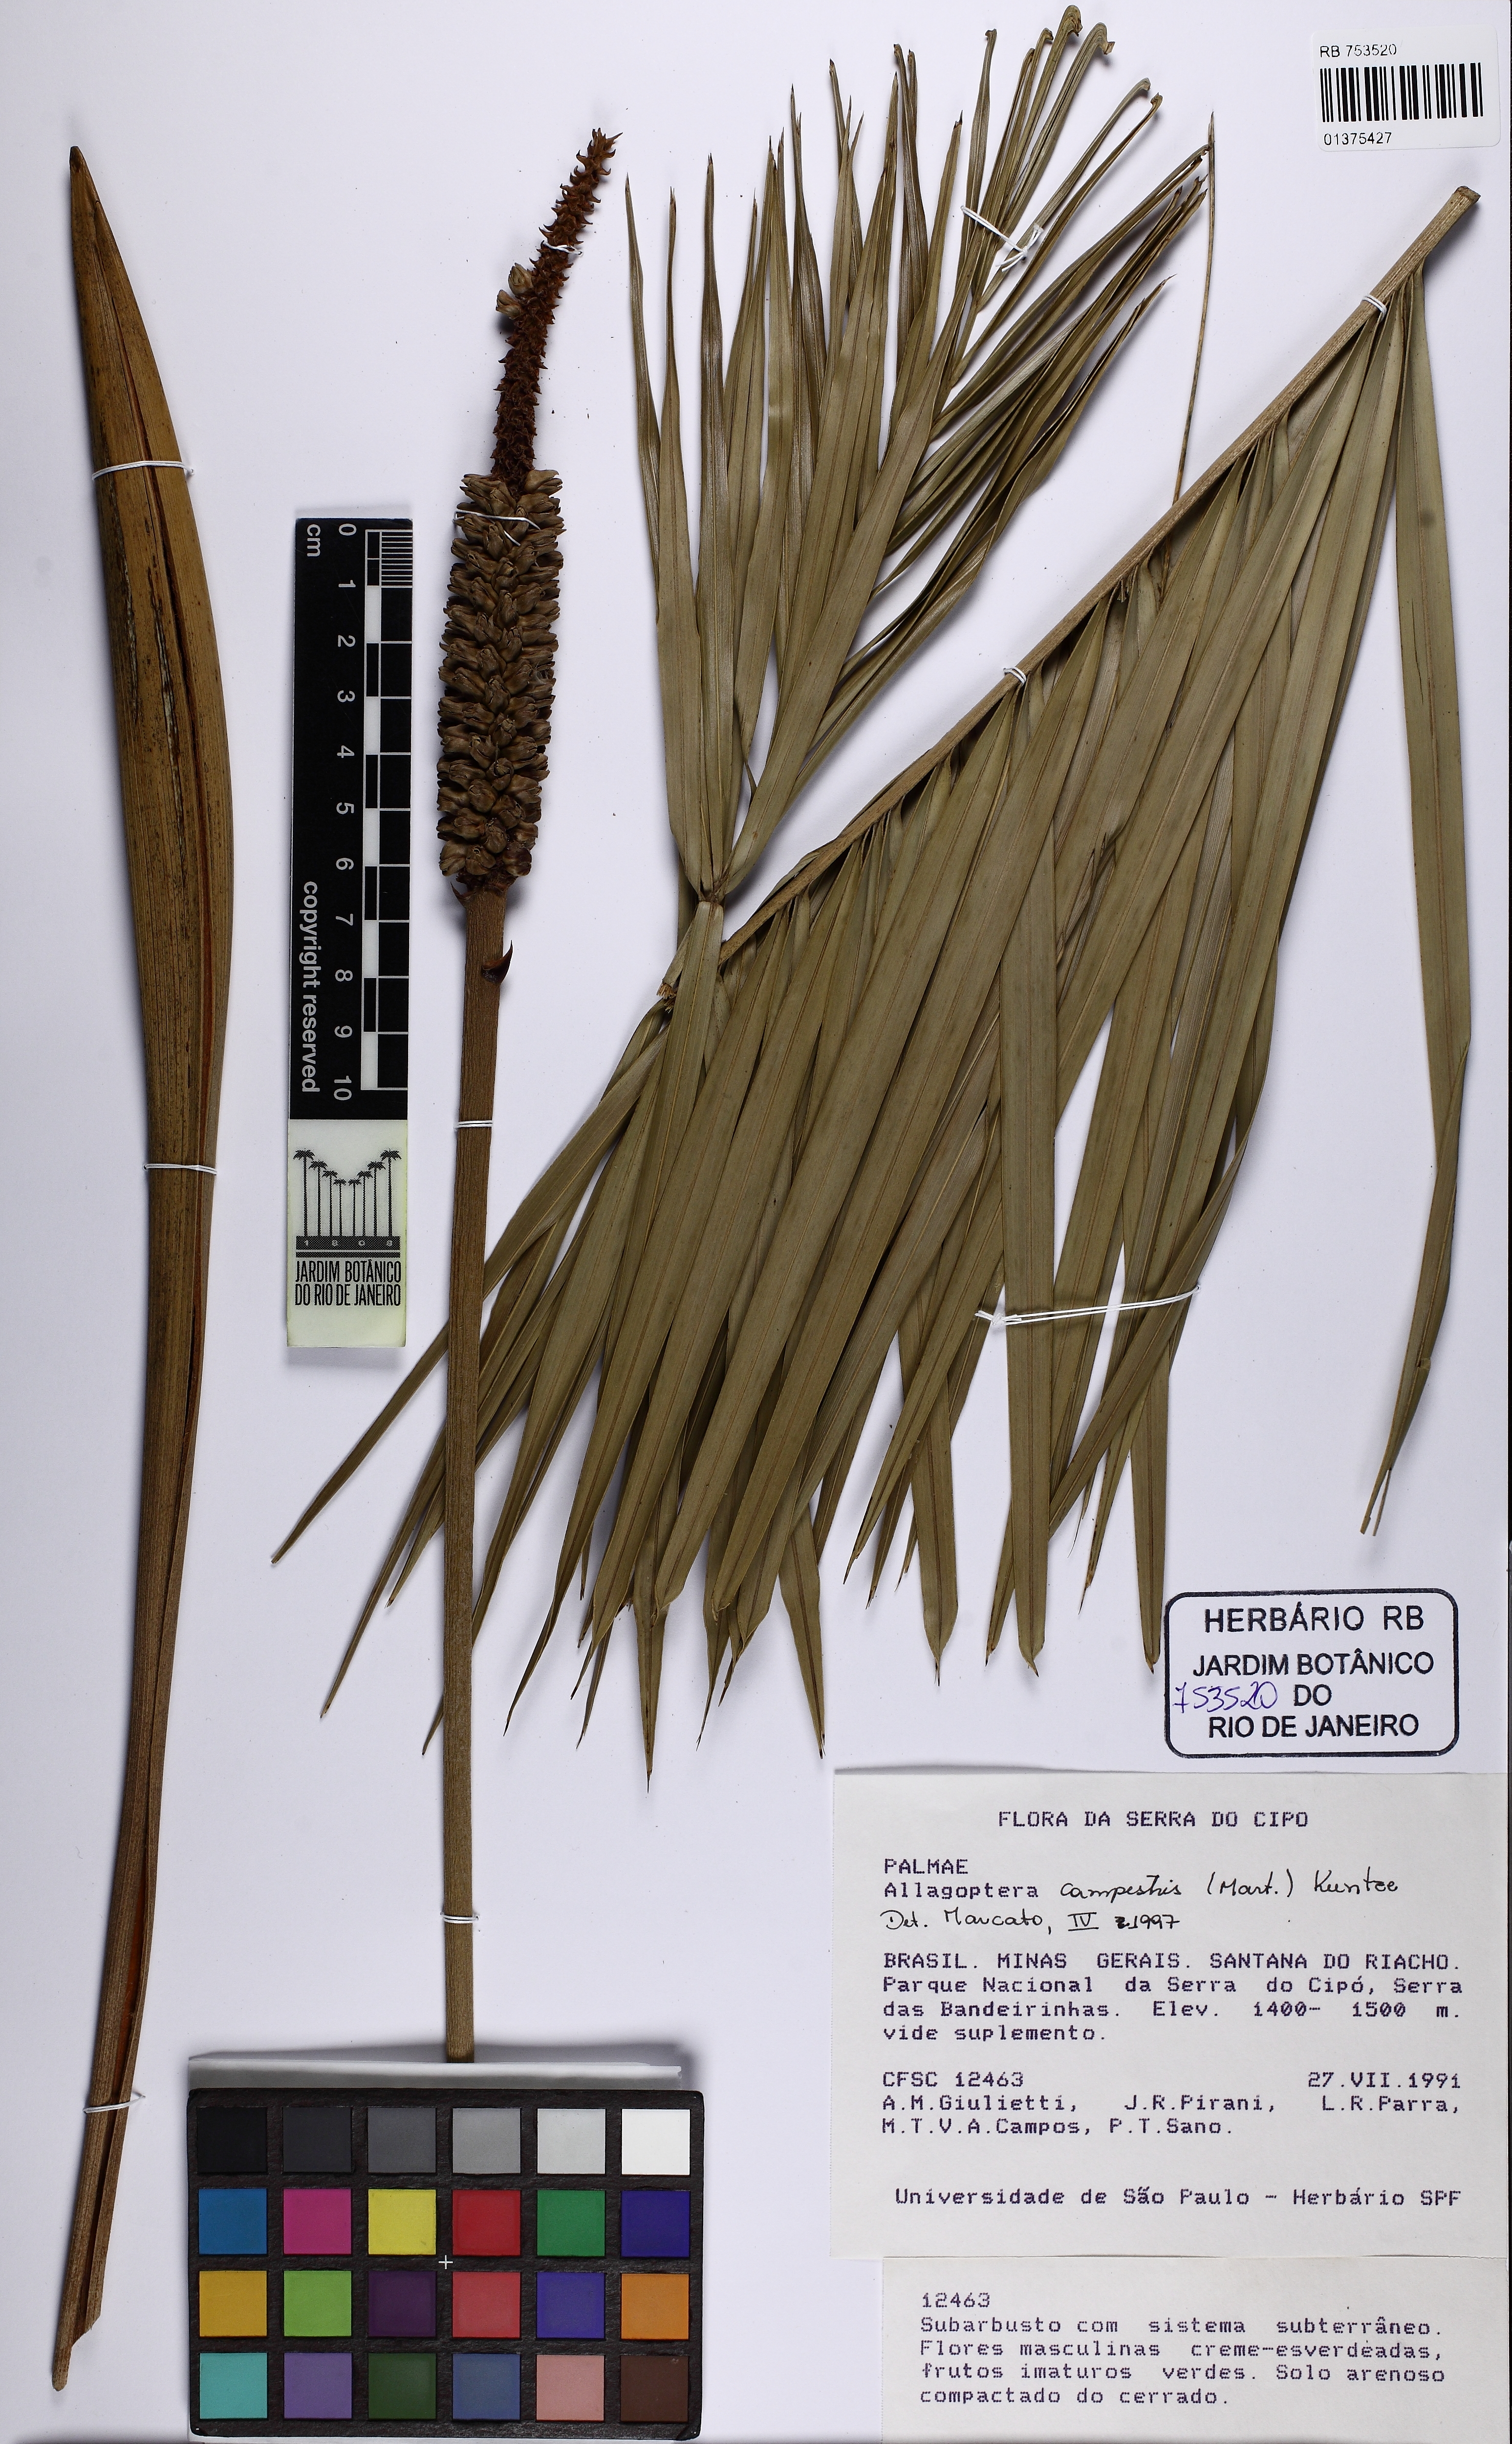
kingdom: Plantae
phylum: Tracheophyta
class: Liliopsida
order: Arecales
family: Arecaceae
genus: Allagoptera
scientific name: Allagoptera campestris
